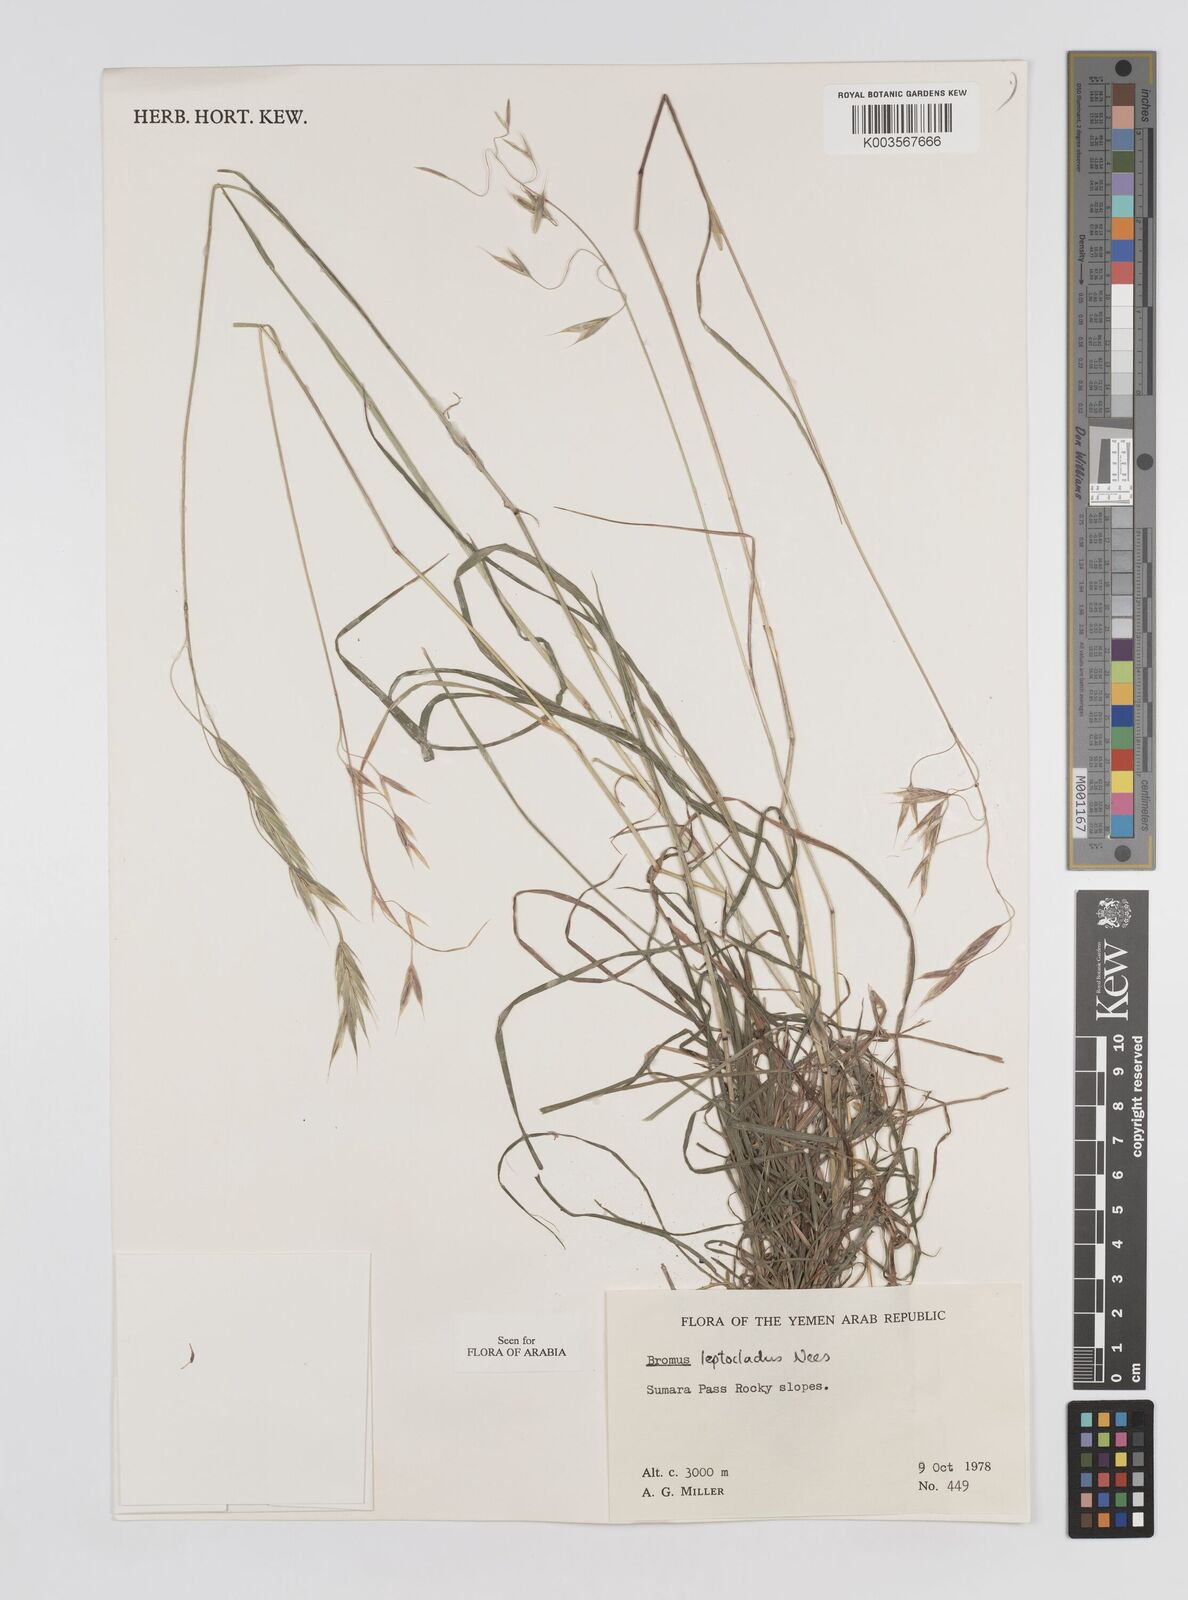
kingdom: Plantae
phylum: Tracheophyta
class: Liliopsida
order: Poales
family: Poaceae
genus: Bromus
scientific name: Bromus leptoclados
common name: Mountain bromegrass
